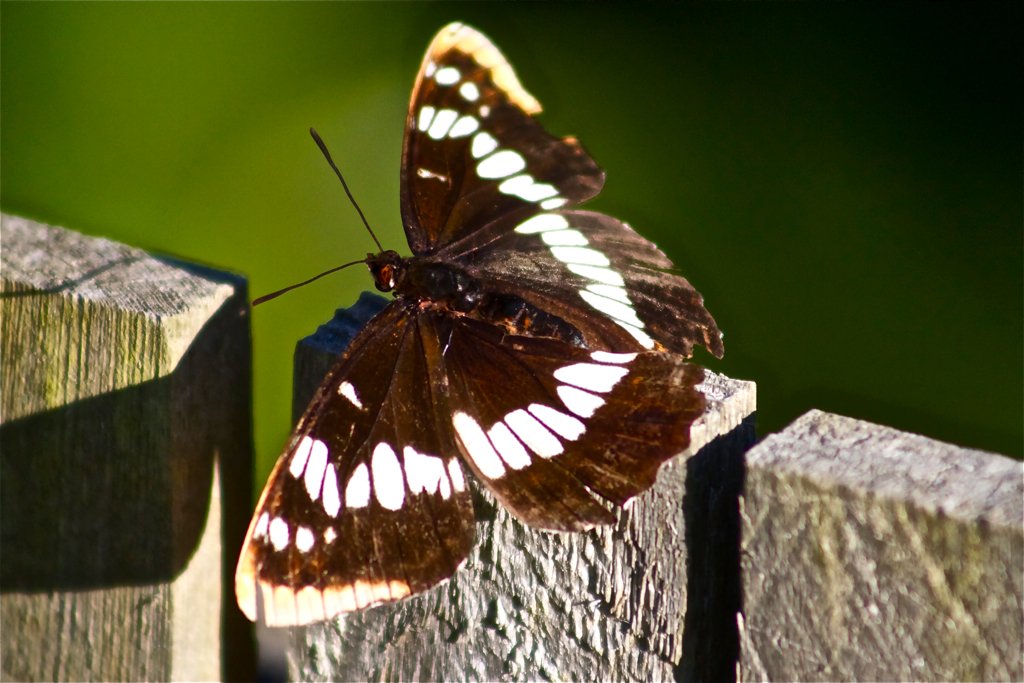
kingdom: Animalia
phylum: Arthropoda
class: Insecta
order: Lepidoptera
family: Nymphalidae
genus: Limenitis
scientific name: Limenitis lorquini
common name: Lorquin's Admiral
